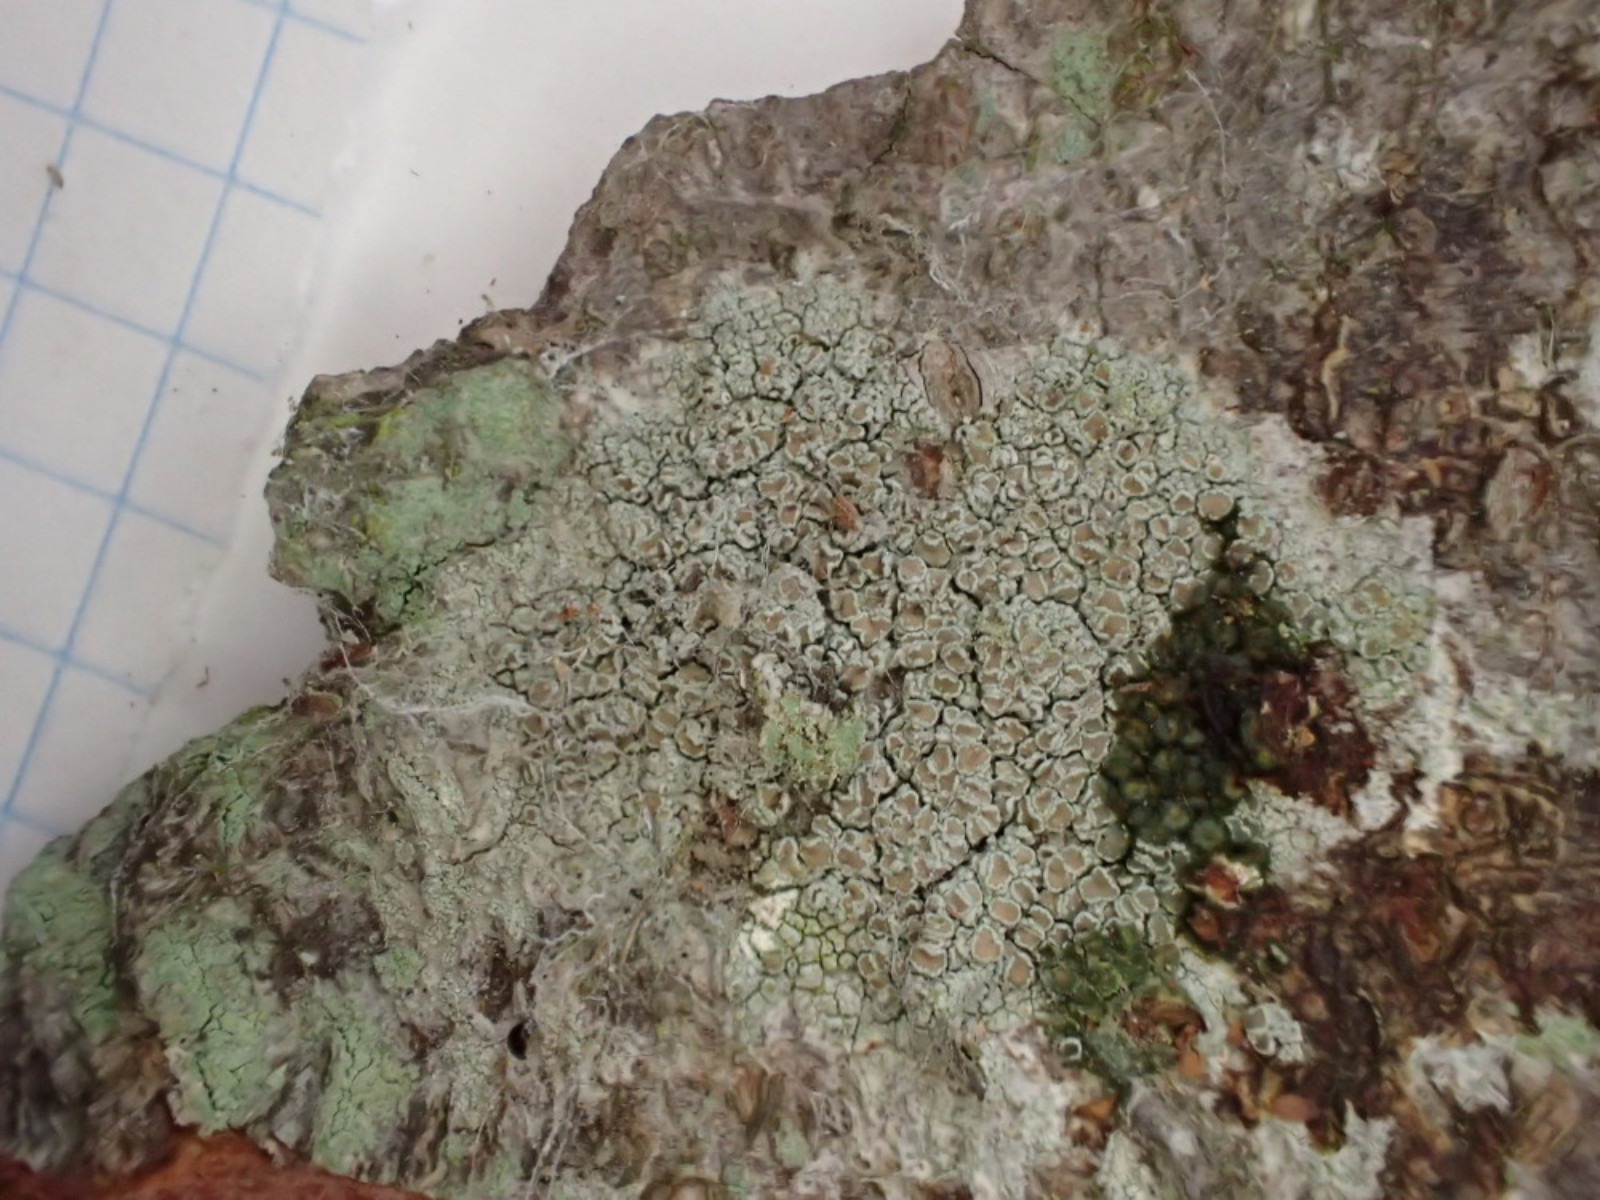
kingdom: Fungi
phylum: Ascomycota
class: Lecanoromycetes
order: Lecanorales
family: Lecanoraceae
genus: Lecanora
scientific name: Lecanora chlarotera
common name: brun kantskivelav
